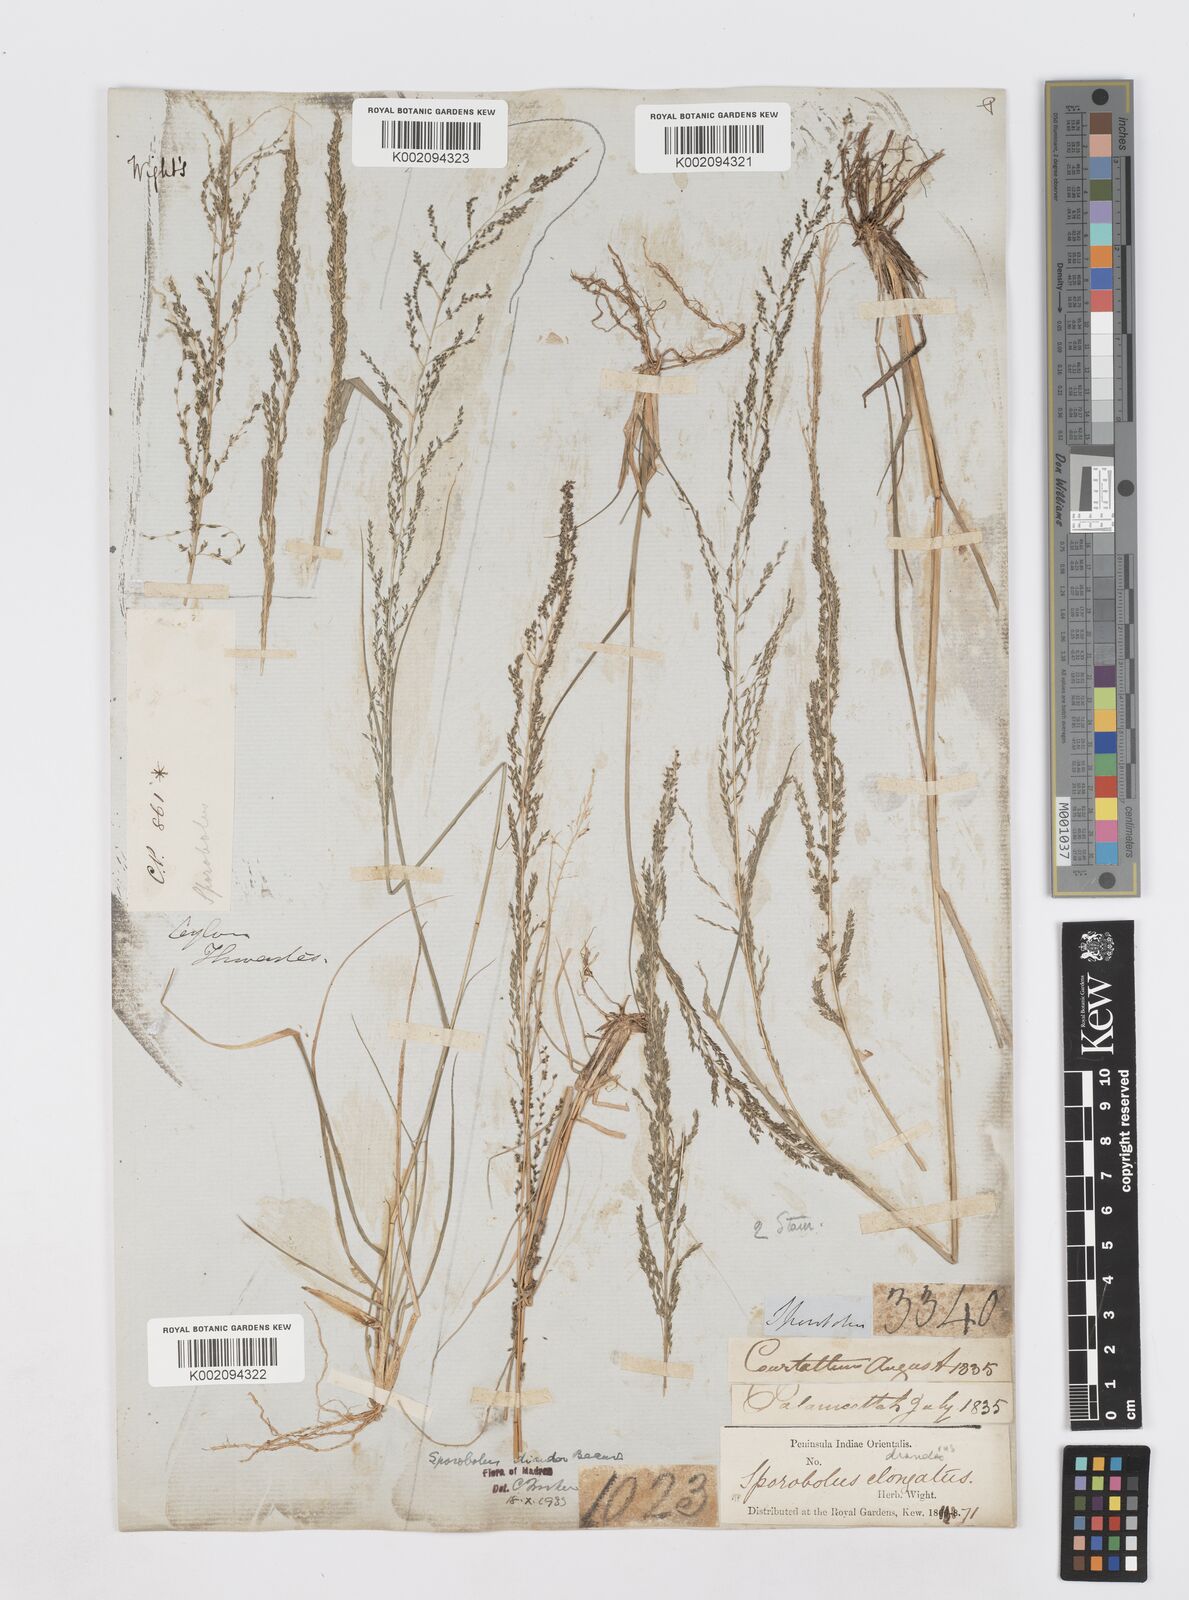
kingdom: Plantae
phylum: Tracheophyta
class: Liliopsida
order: Poales
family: Poaceae
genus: Sporobolus
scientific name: Sporobolus diandrus
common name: Tussock dropseed
